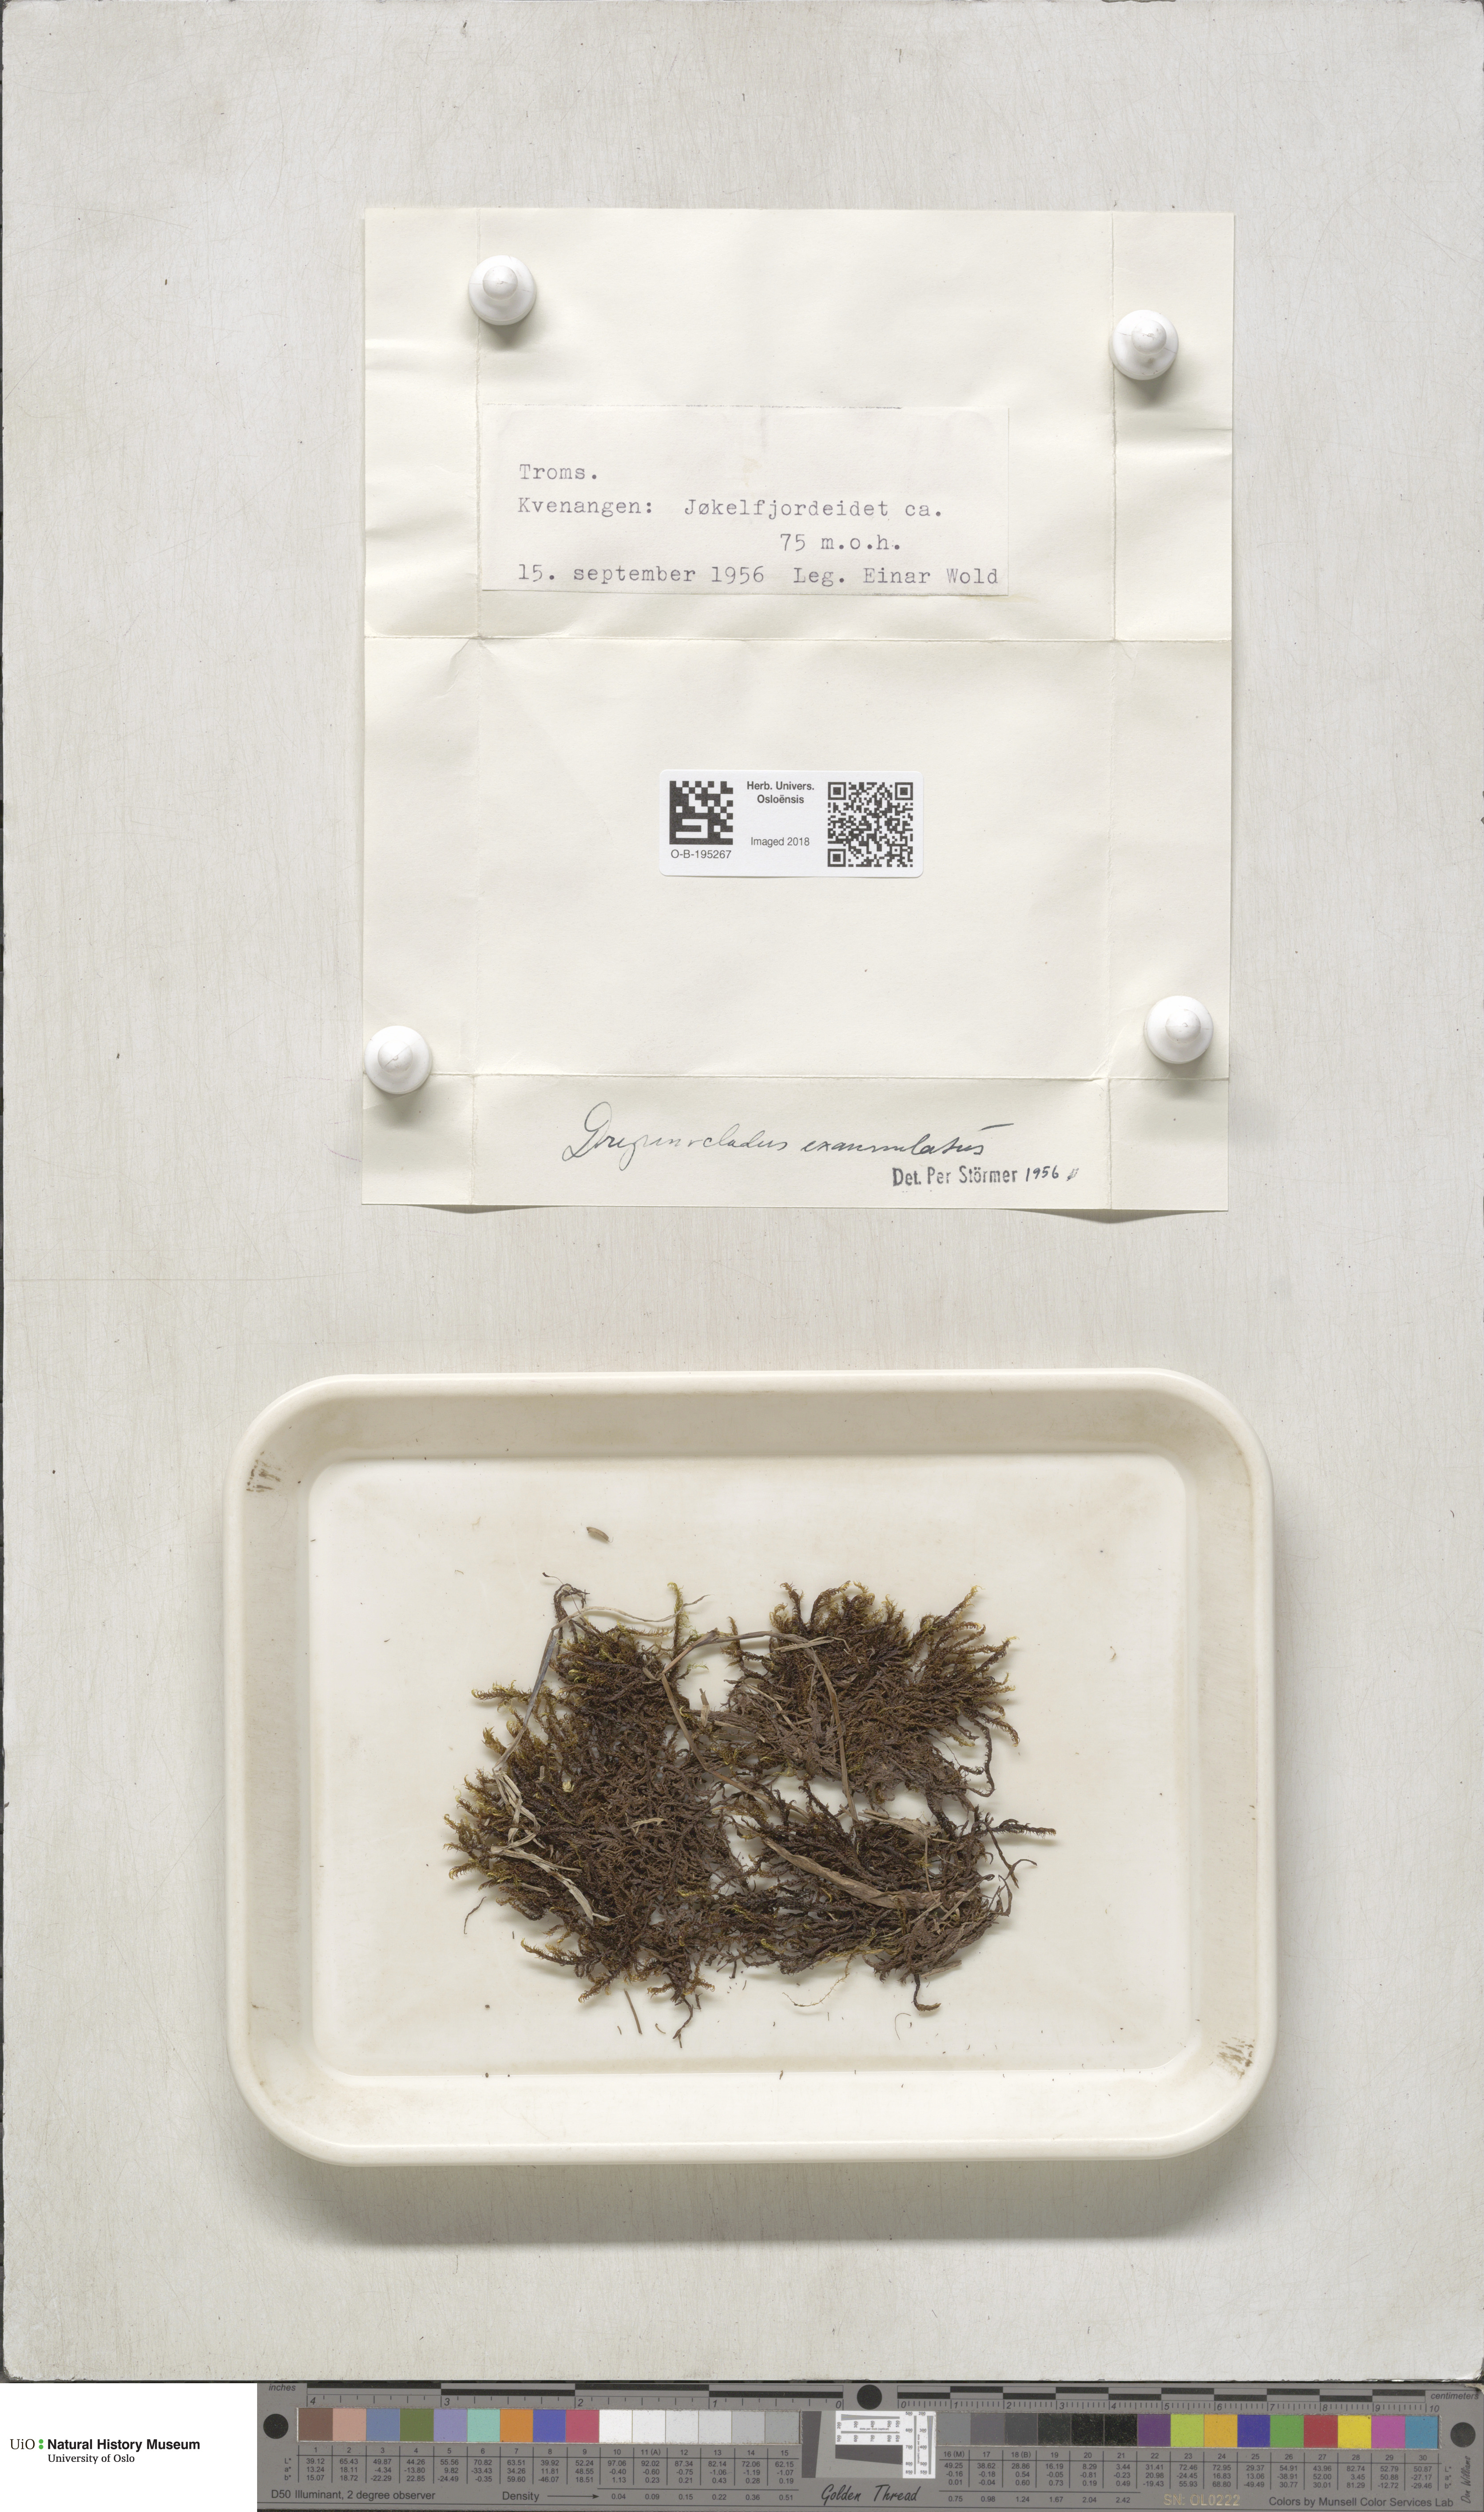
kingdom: Plantae
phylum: Bryophyta
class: Bryopsida
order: Hypnales
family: Calliergonaceae
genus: Sarmentypnum
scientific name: Sarmentypnum exannulatum
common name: Ringless spoon moss
